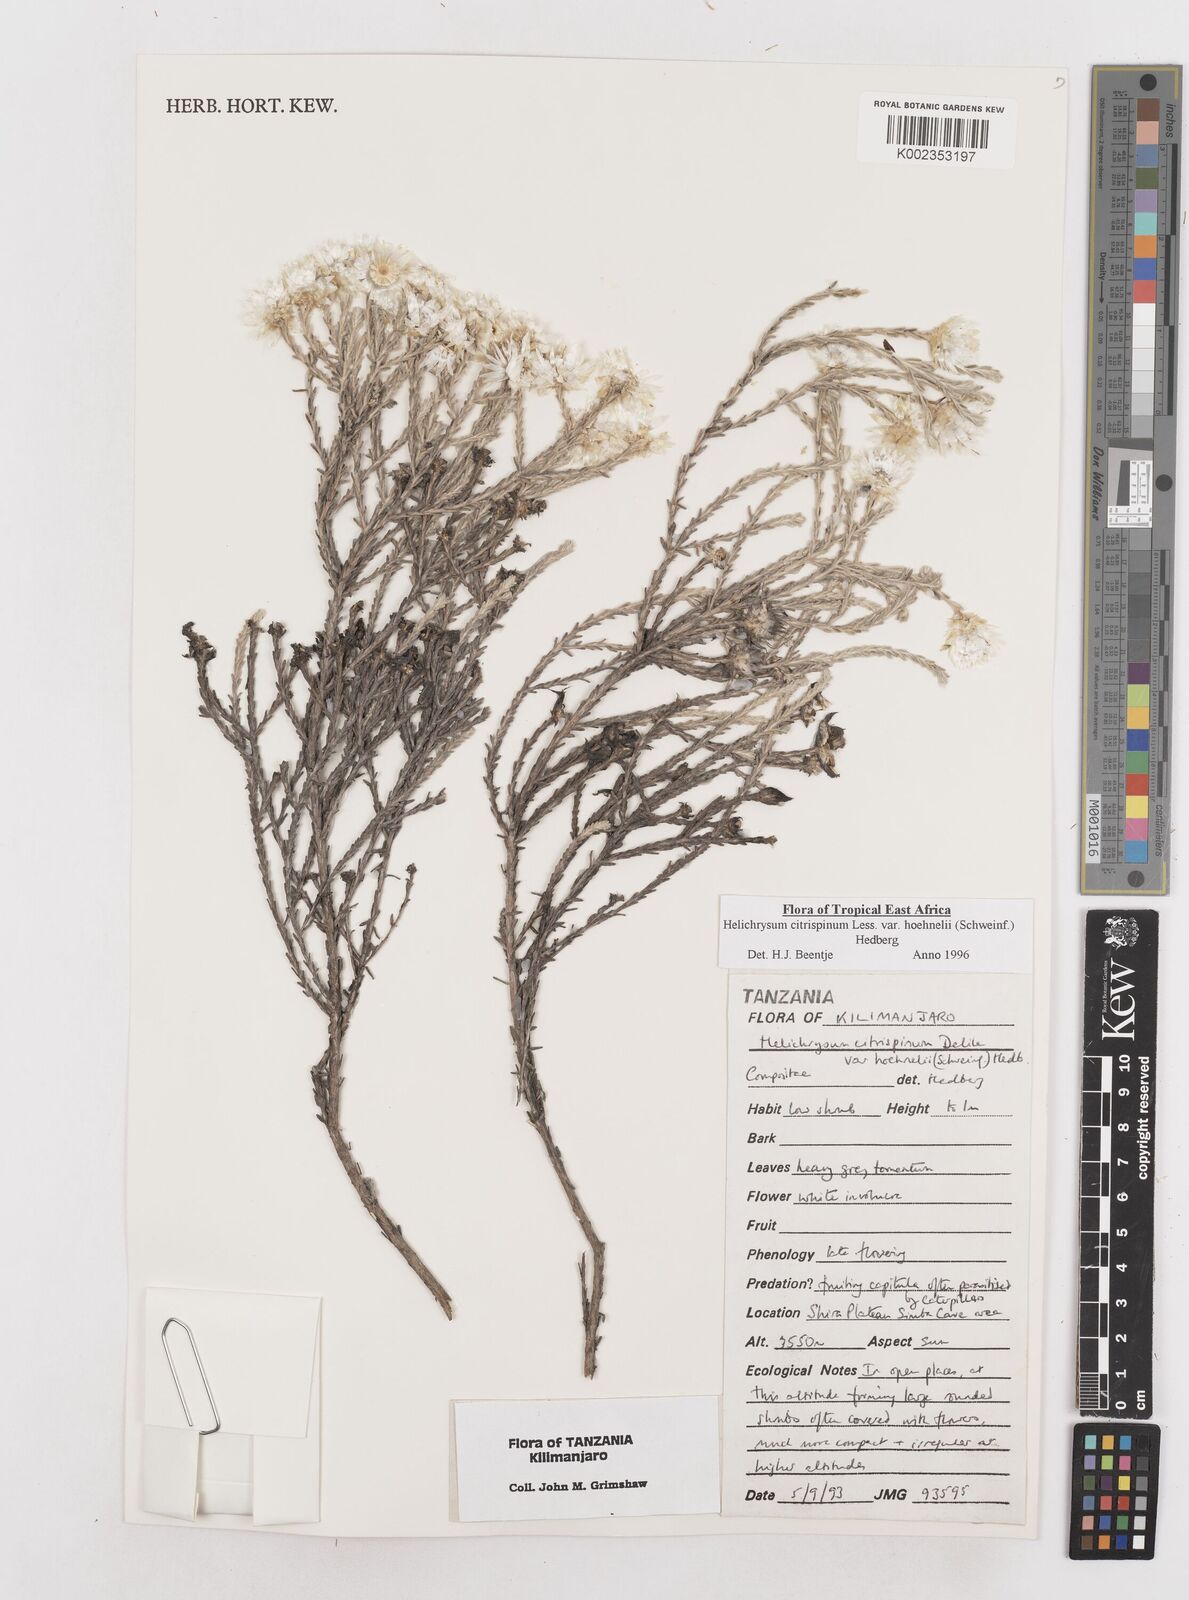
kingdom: Plantae
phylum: Tracheophyta
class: Magnoliopsida
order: Asterales
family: Asteraceae
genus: Helichrysum
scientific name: Helichrysum citrispinum
